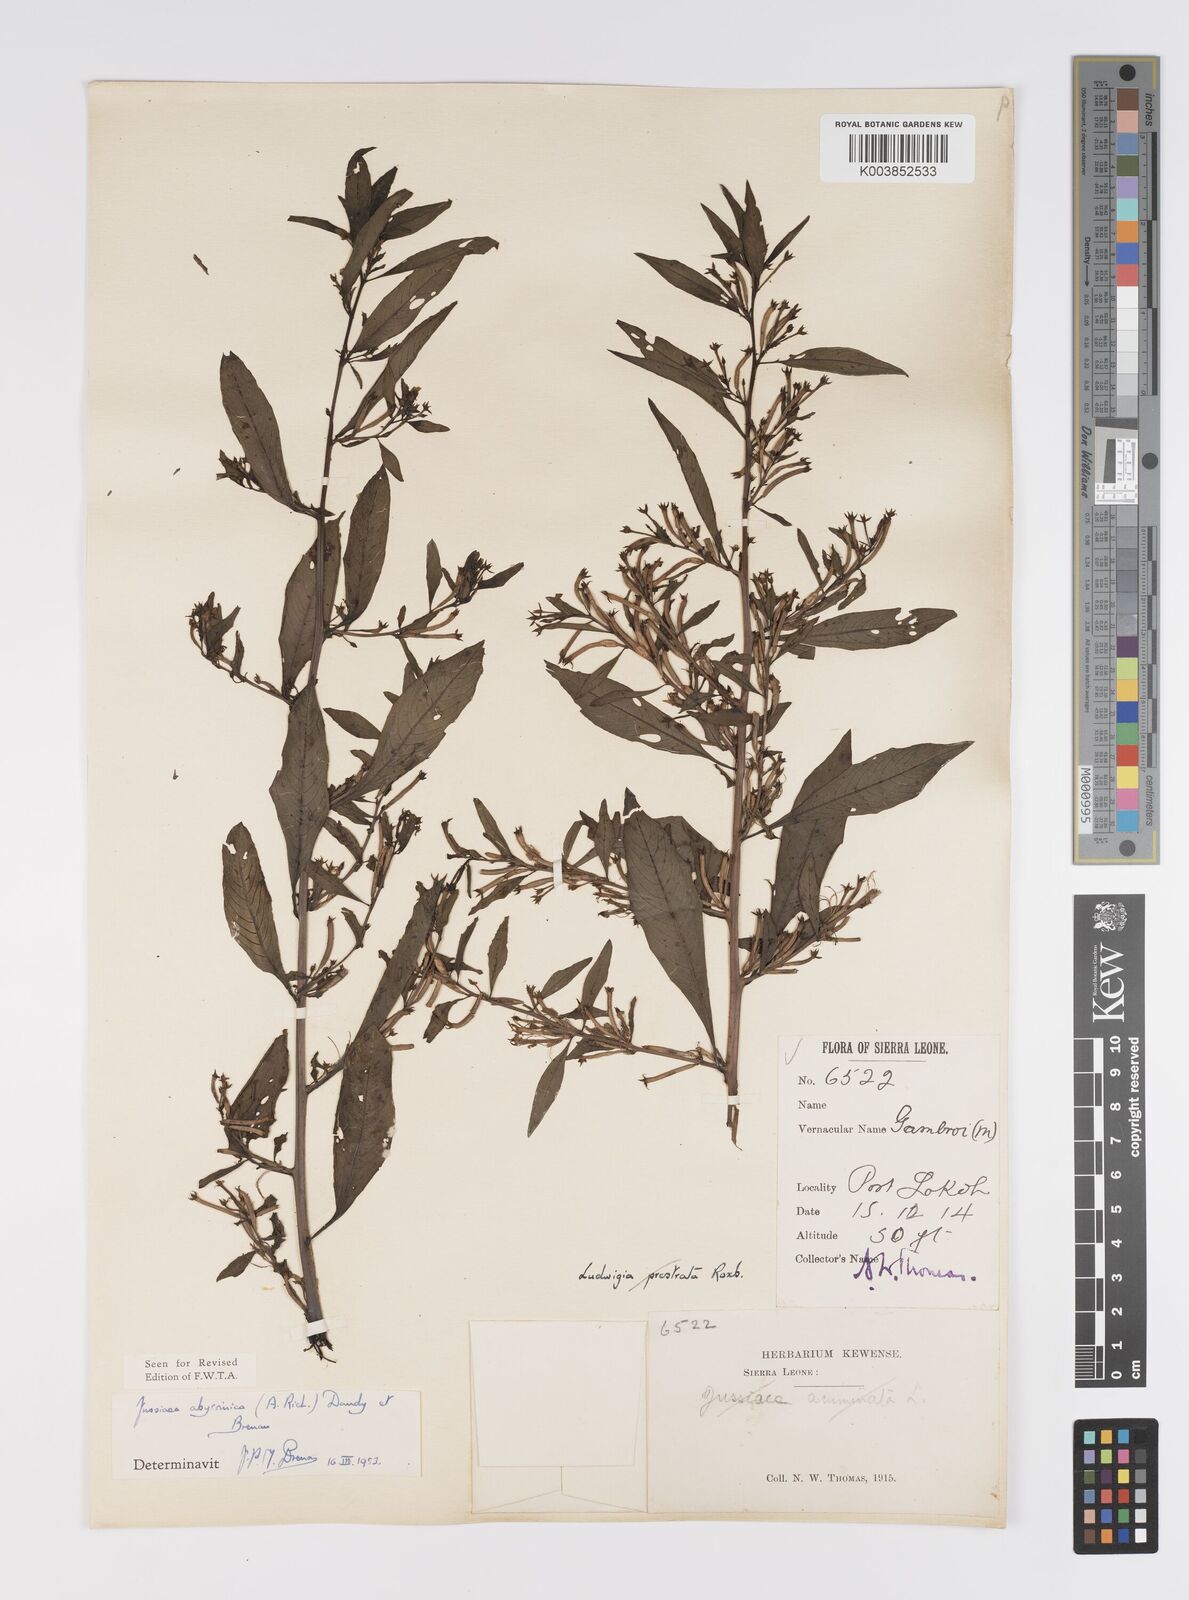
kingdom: Plantae
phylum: Tracheophyta
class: Magnoliopsida
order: Myrtales
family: Onagraceae
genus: Ludwigia
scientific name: Ludwigia abyssinica
